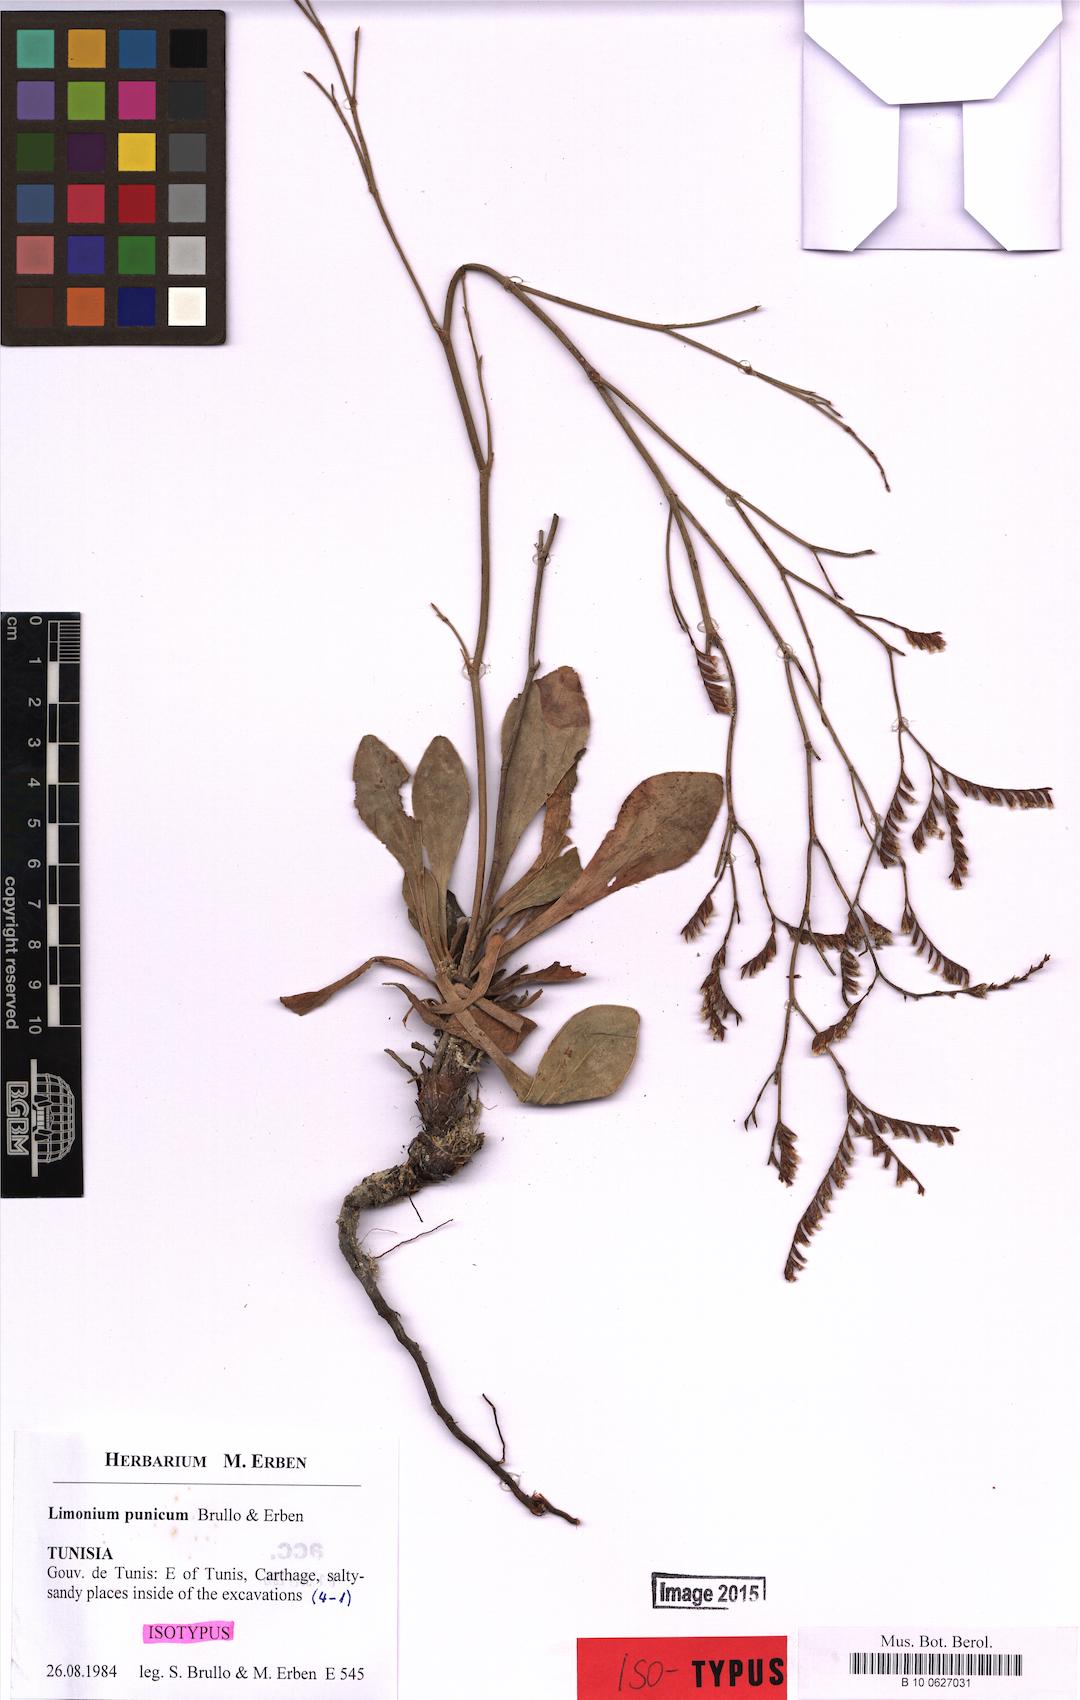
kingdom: Plantae
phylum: Tracheophyta
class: Magnoliopsida
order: Caryophyllales
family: Plumbaginaceae
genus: Limonium
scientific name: Limonium punicum
